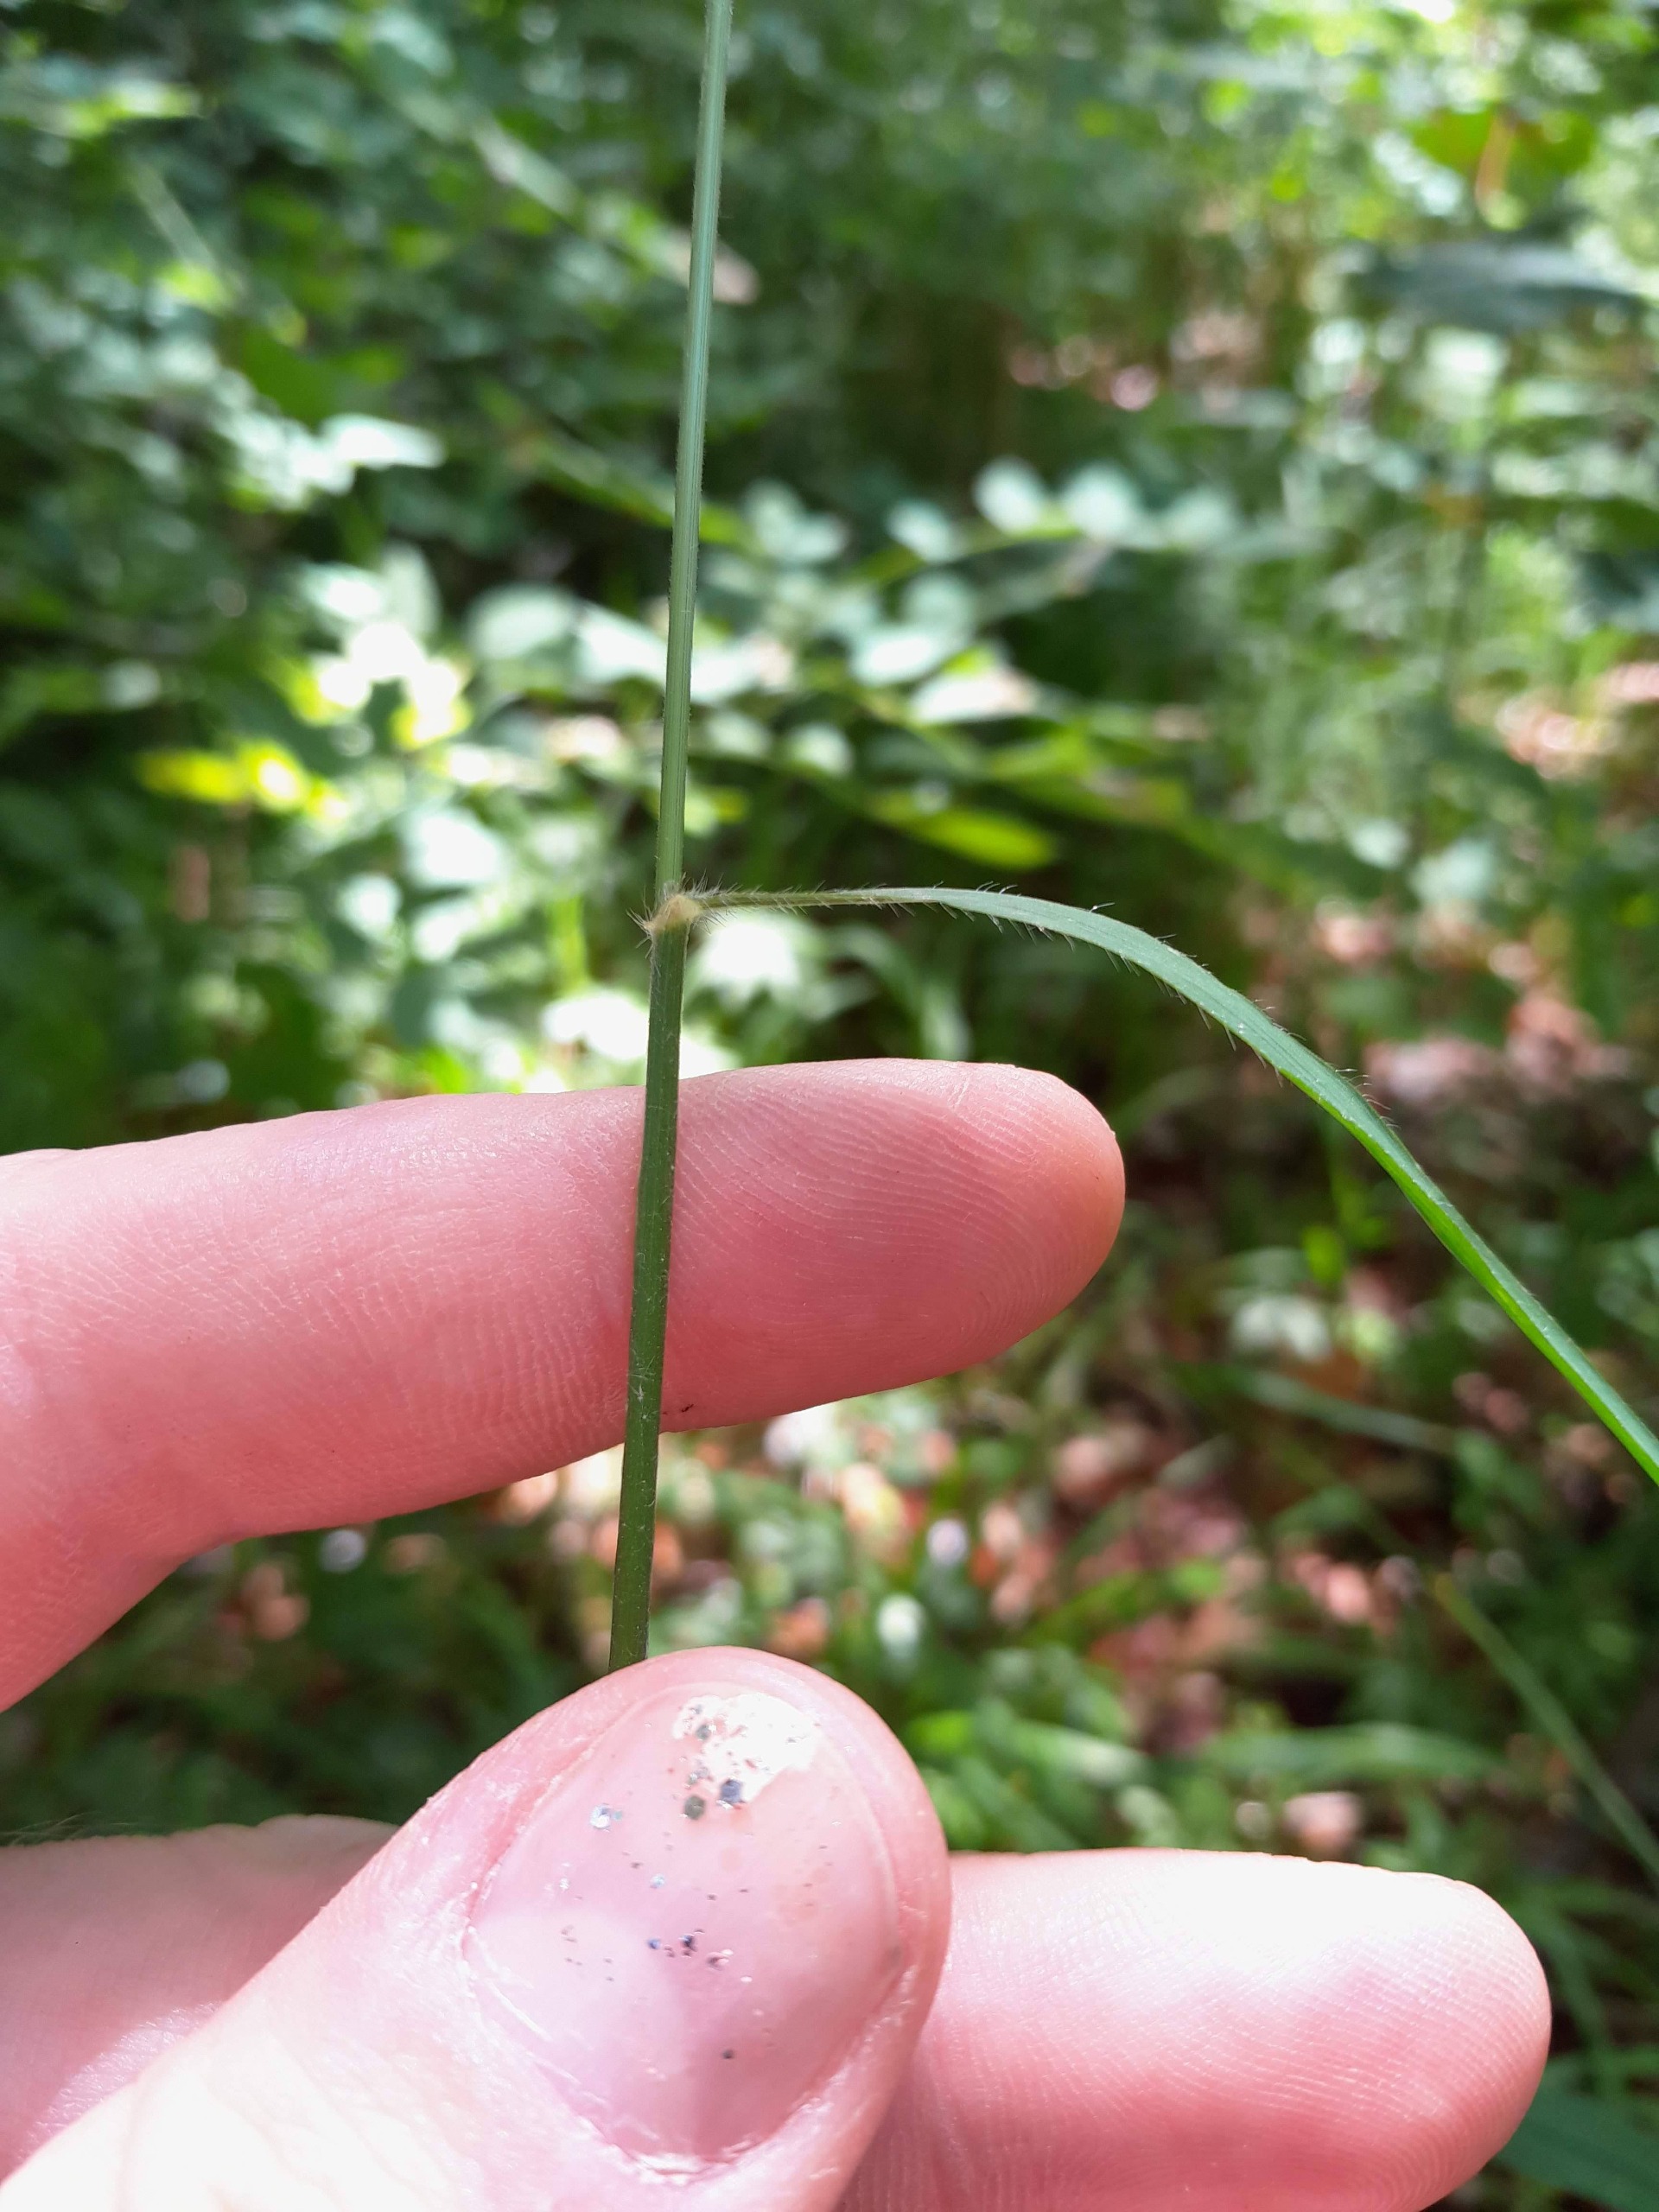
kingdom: Plantae
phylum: Tracheophyta
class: Liliopsida
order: Poales
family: Poaceae
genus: Bromus
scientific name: Bromus benekenii
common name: Tidlig skov-hejre
